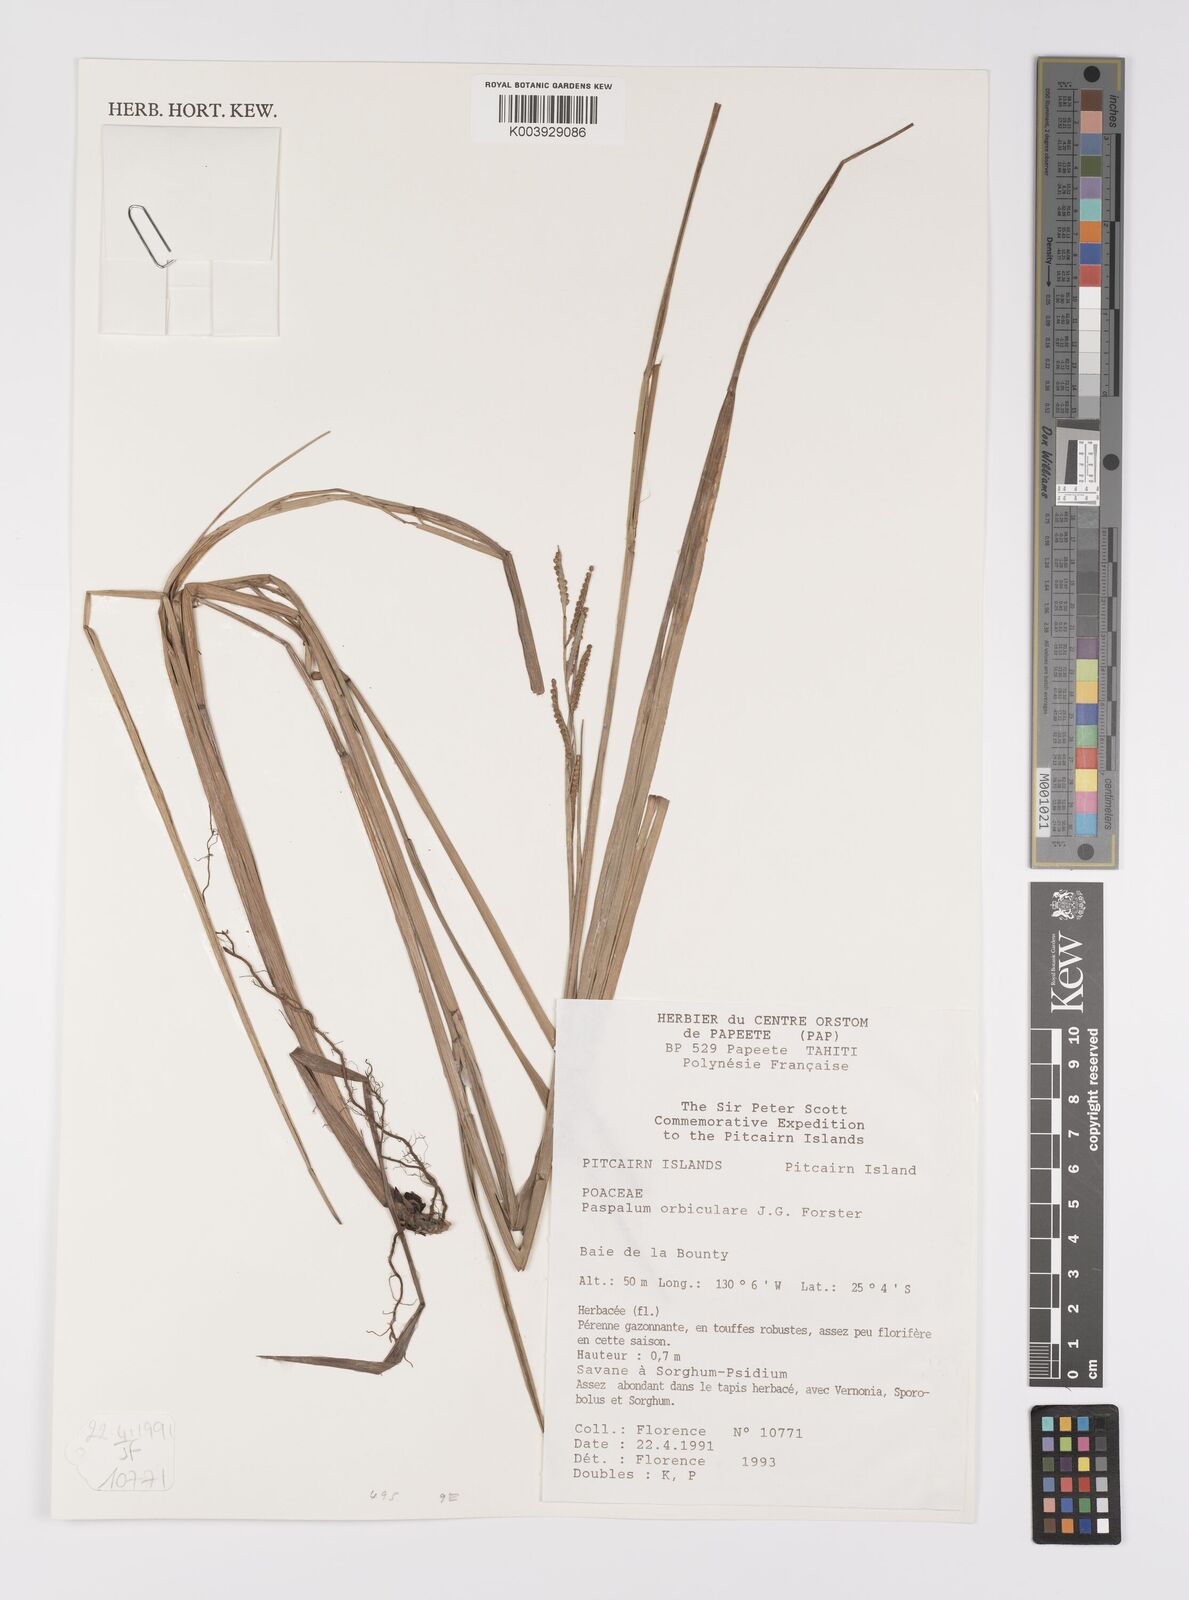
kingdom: Plantae
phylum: Tracheophyta
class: Liliopsida
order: Poales
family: Poaceae
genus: Paspalum
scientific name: Paspalum scrobiculatum
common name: Kodo millet
